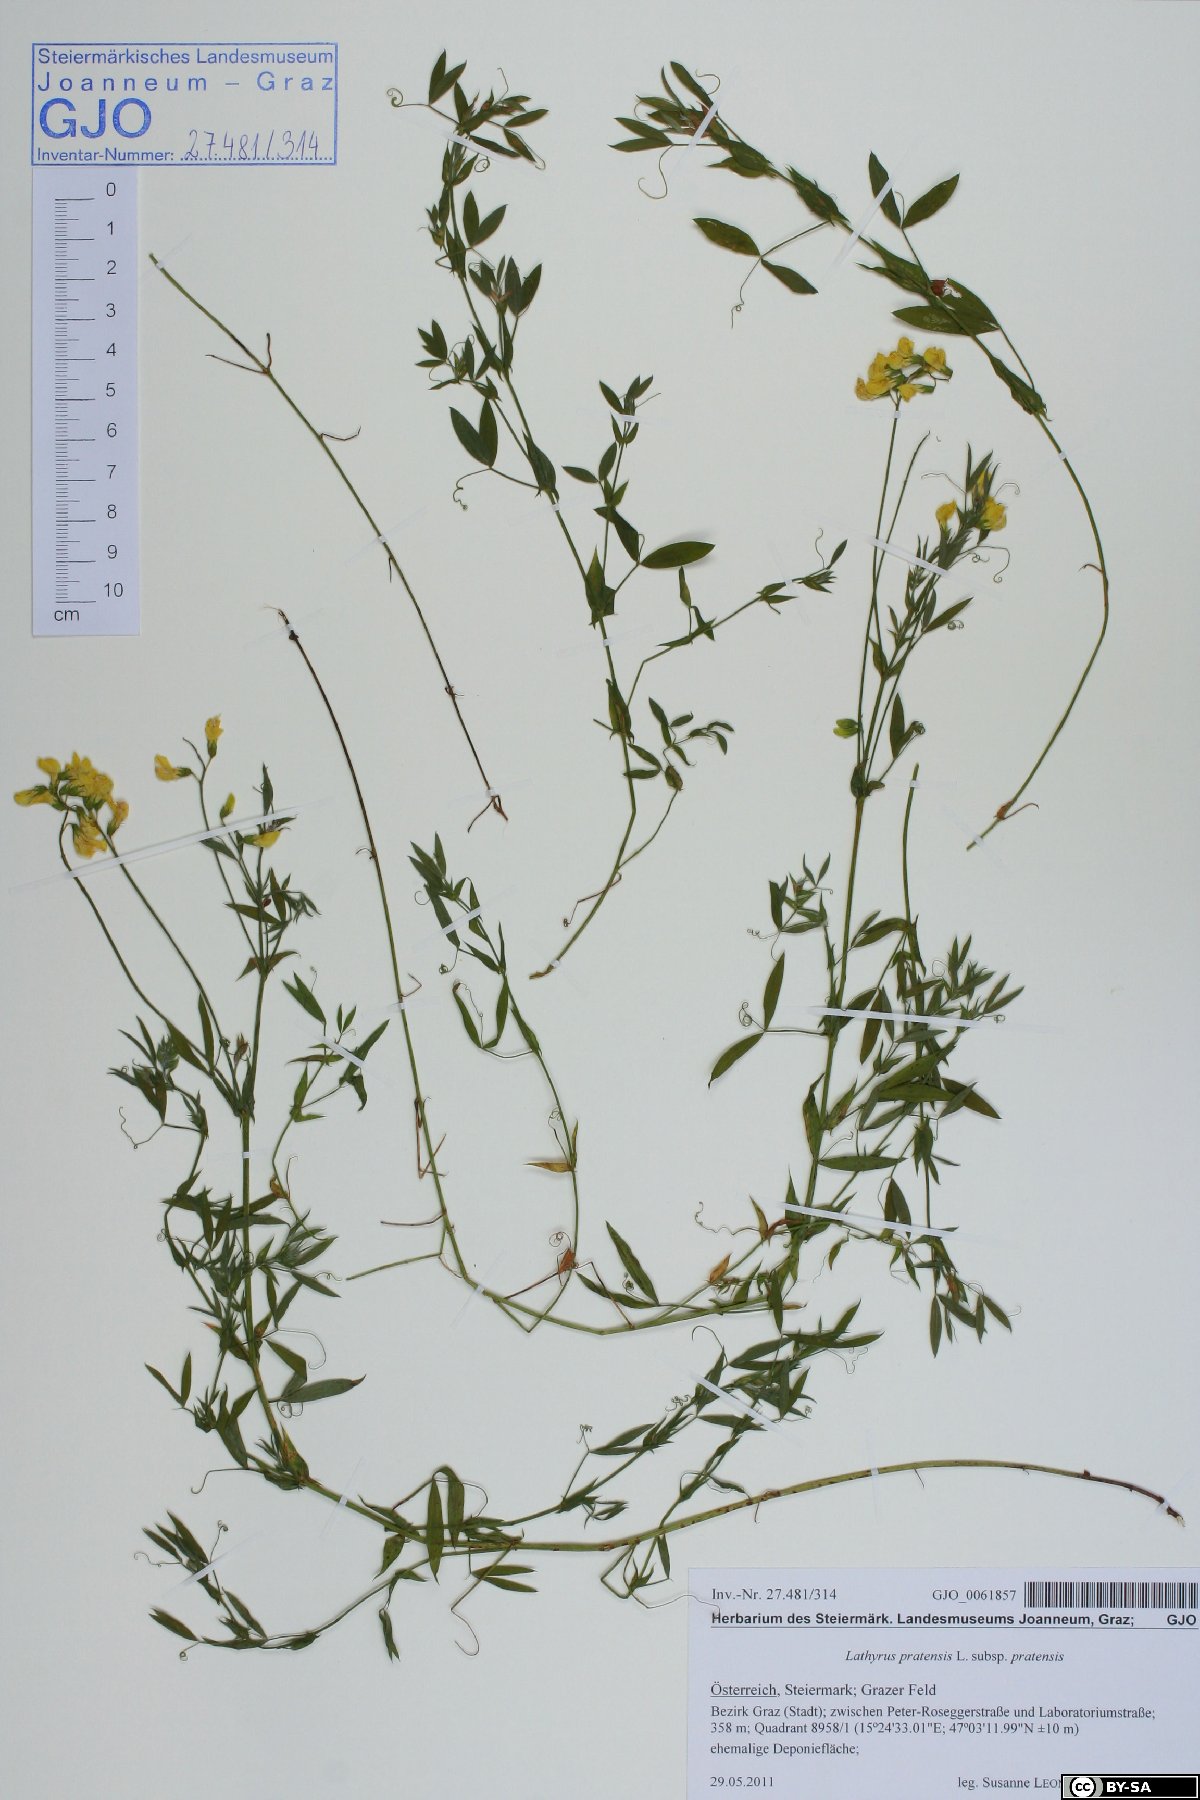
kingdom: Plantae
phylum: Tracheophyta
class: Magnoliopsida
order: Fabales
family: Fabaceae
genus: Lathyrus
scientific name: Lathyrus pratensis
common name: Meadow vetchling
